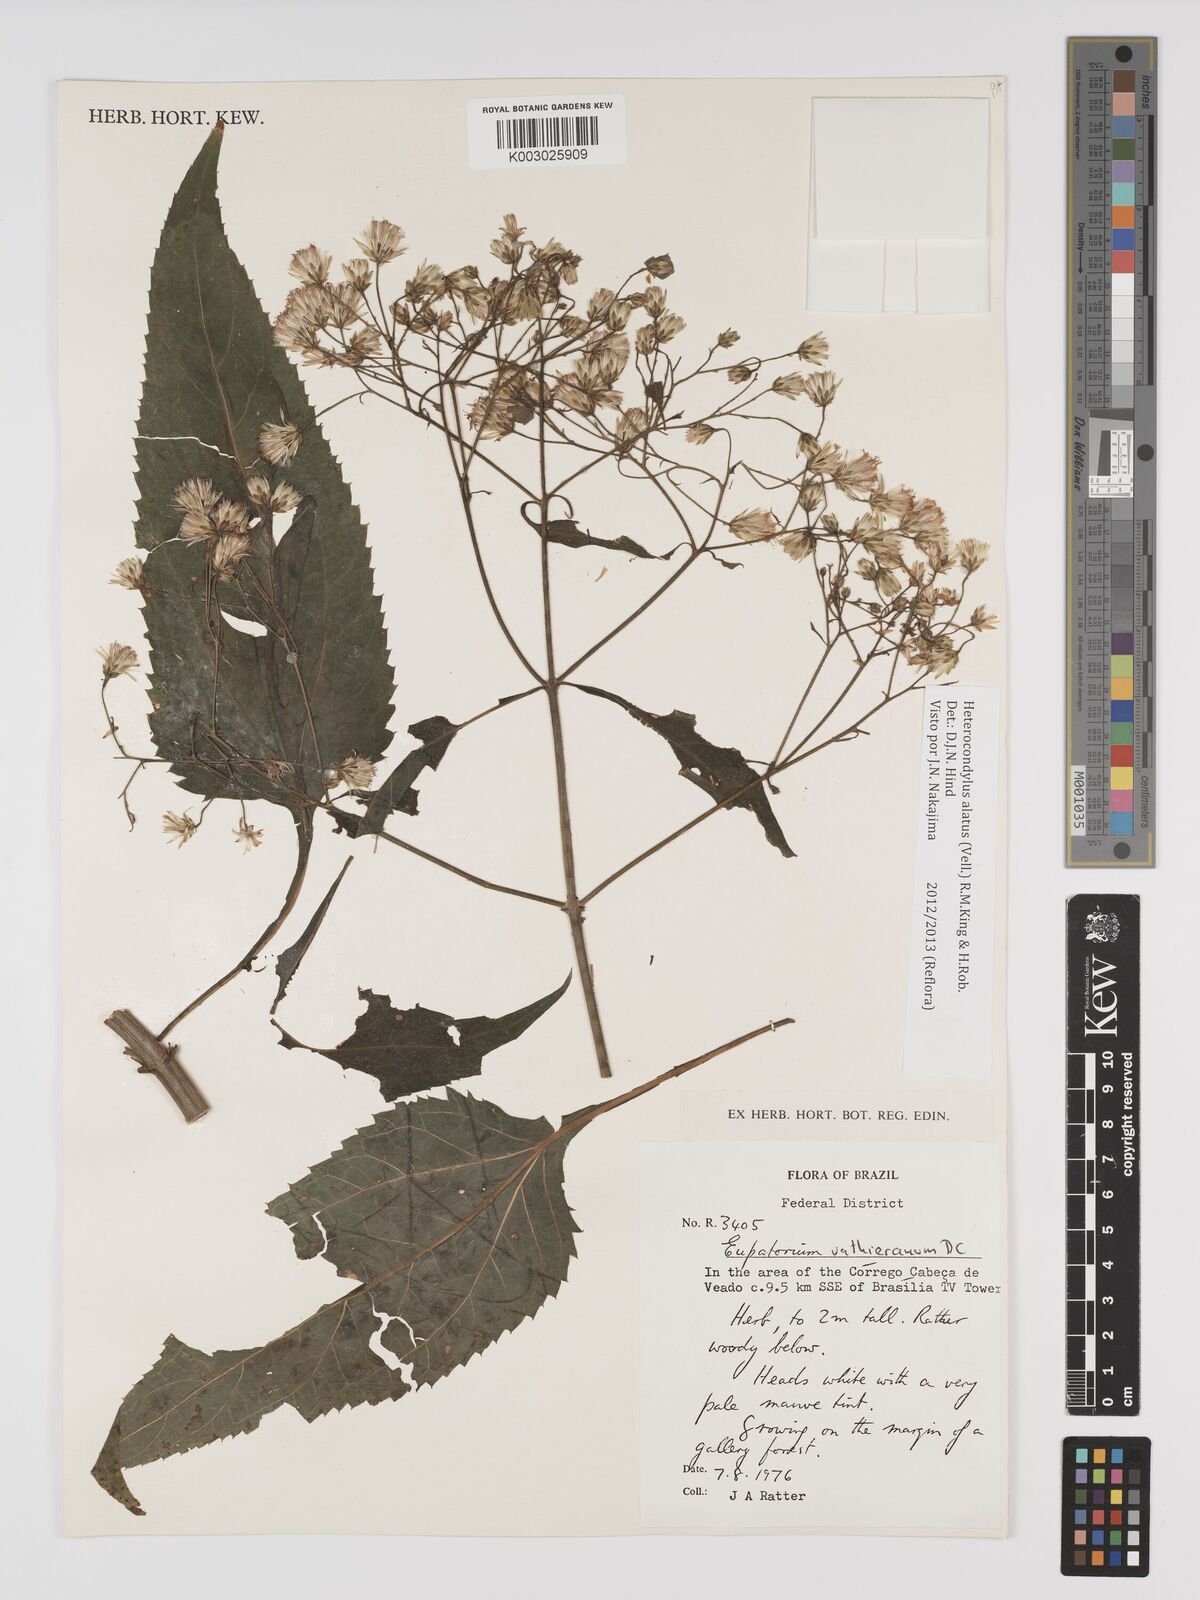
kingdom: Plantae
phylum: Tracheophyta
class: Magnoliopsida
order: Asterales
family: Asteraceae
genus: Heterocondylus
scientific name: Heterocondylus alatus
